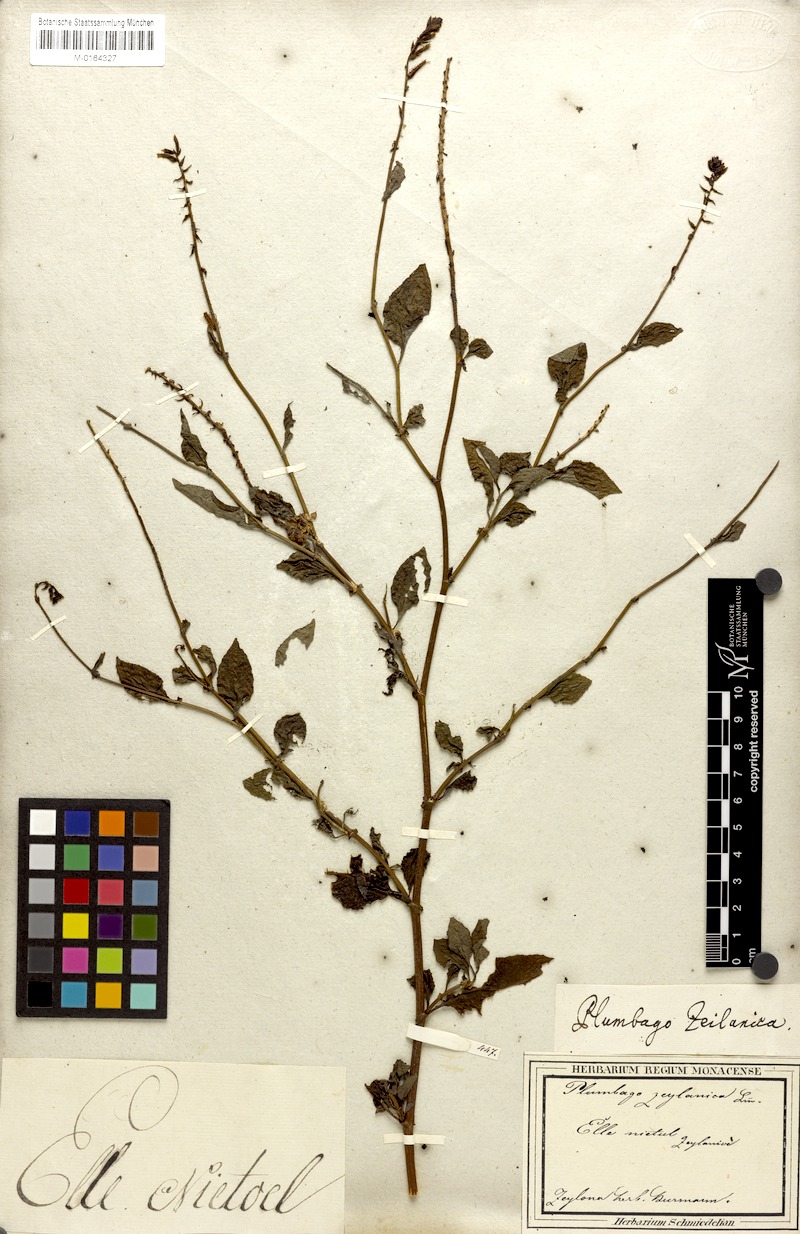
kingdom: Plantae
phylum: Tracheophyta
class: Magnoliopsida
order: Caryophyllales
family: Plumbaginaceae
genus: Plumbago
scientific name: Plumbago zeylanica
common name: Doctorbush
